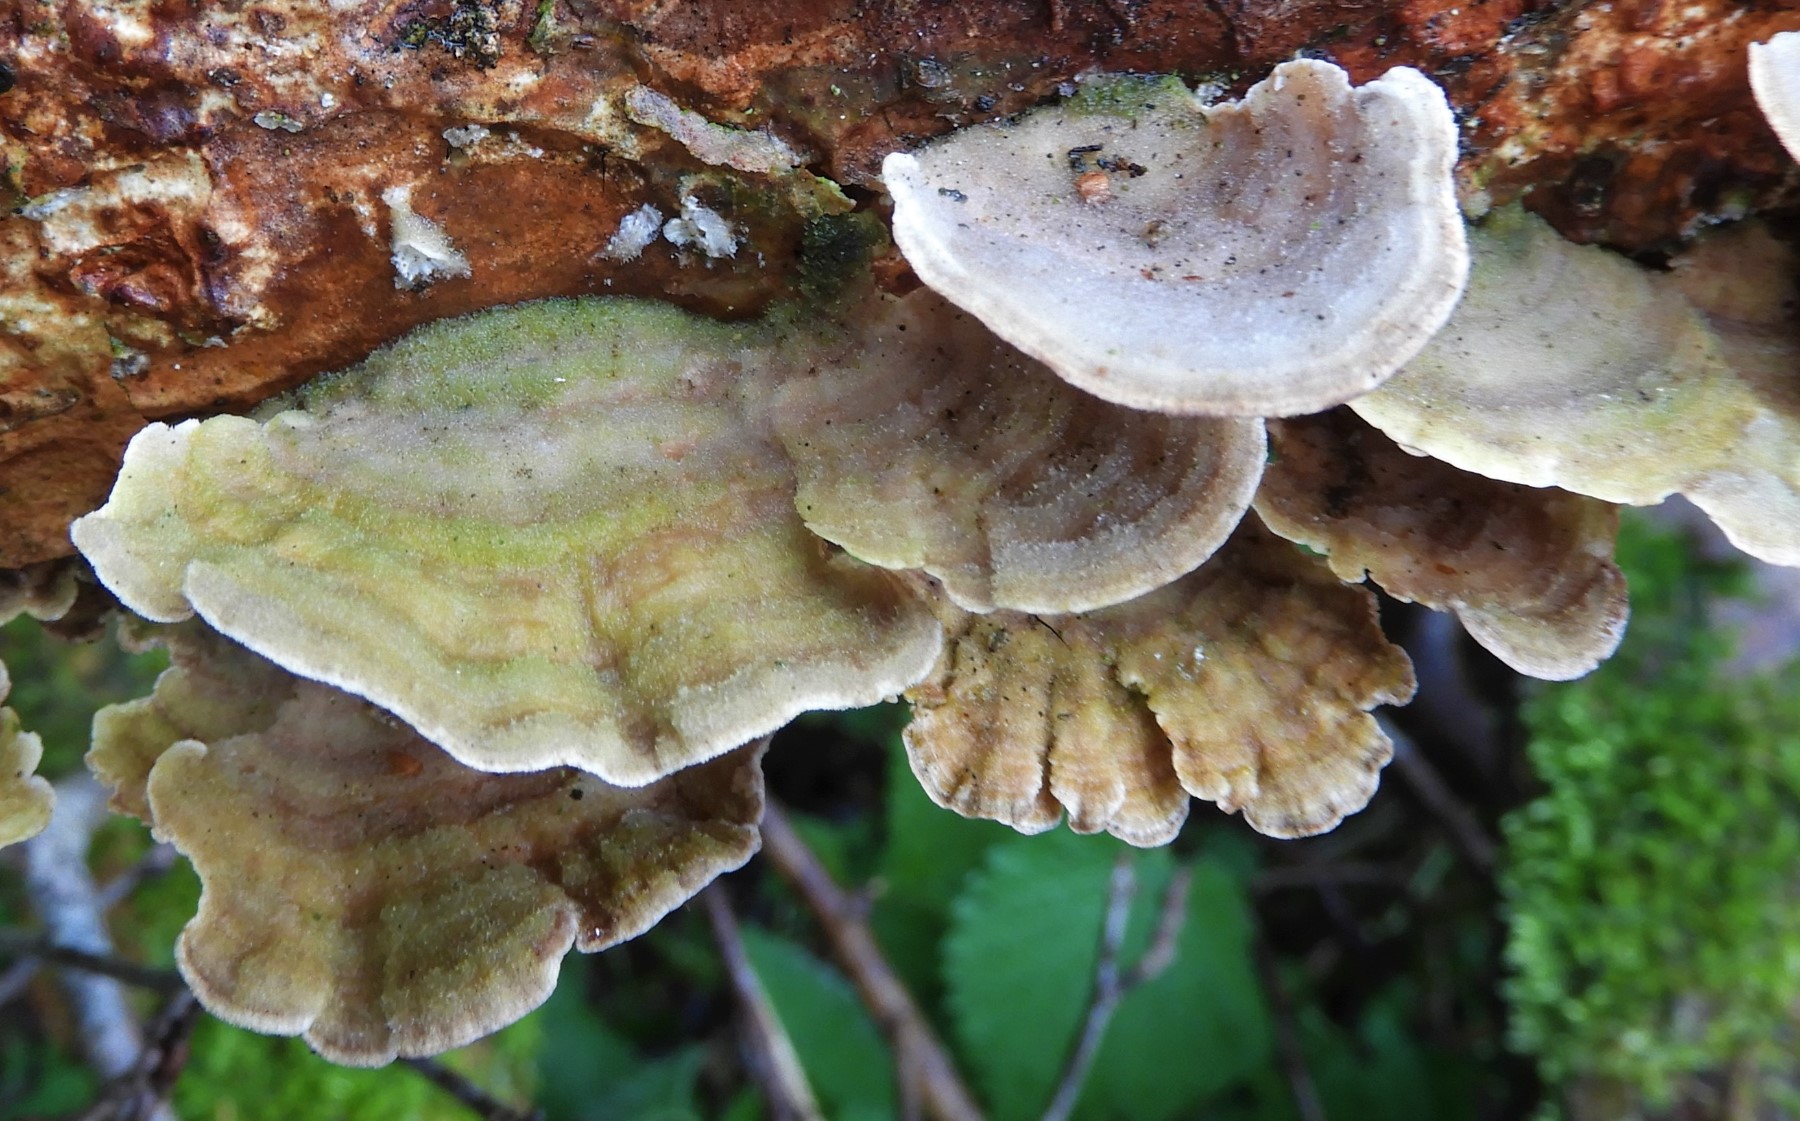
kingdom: Fungi
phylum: Basidiomycota
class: Agaricomycetes
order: Hymenochaetales
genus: Trichaptum
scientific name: Trichaptum abietinum
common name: almindelig violporesvamp
